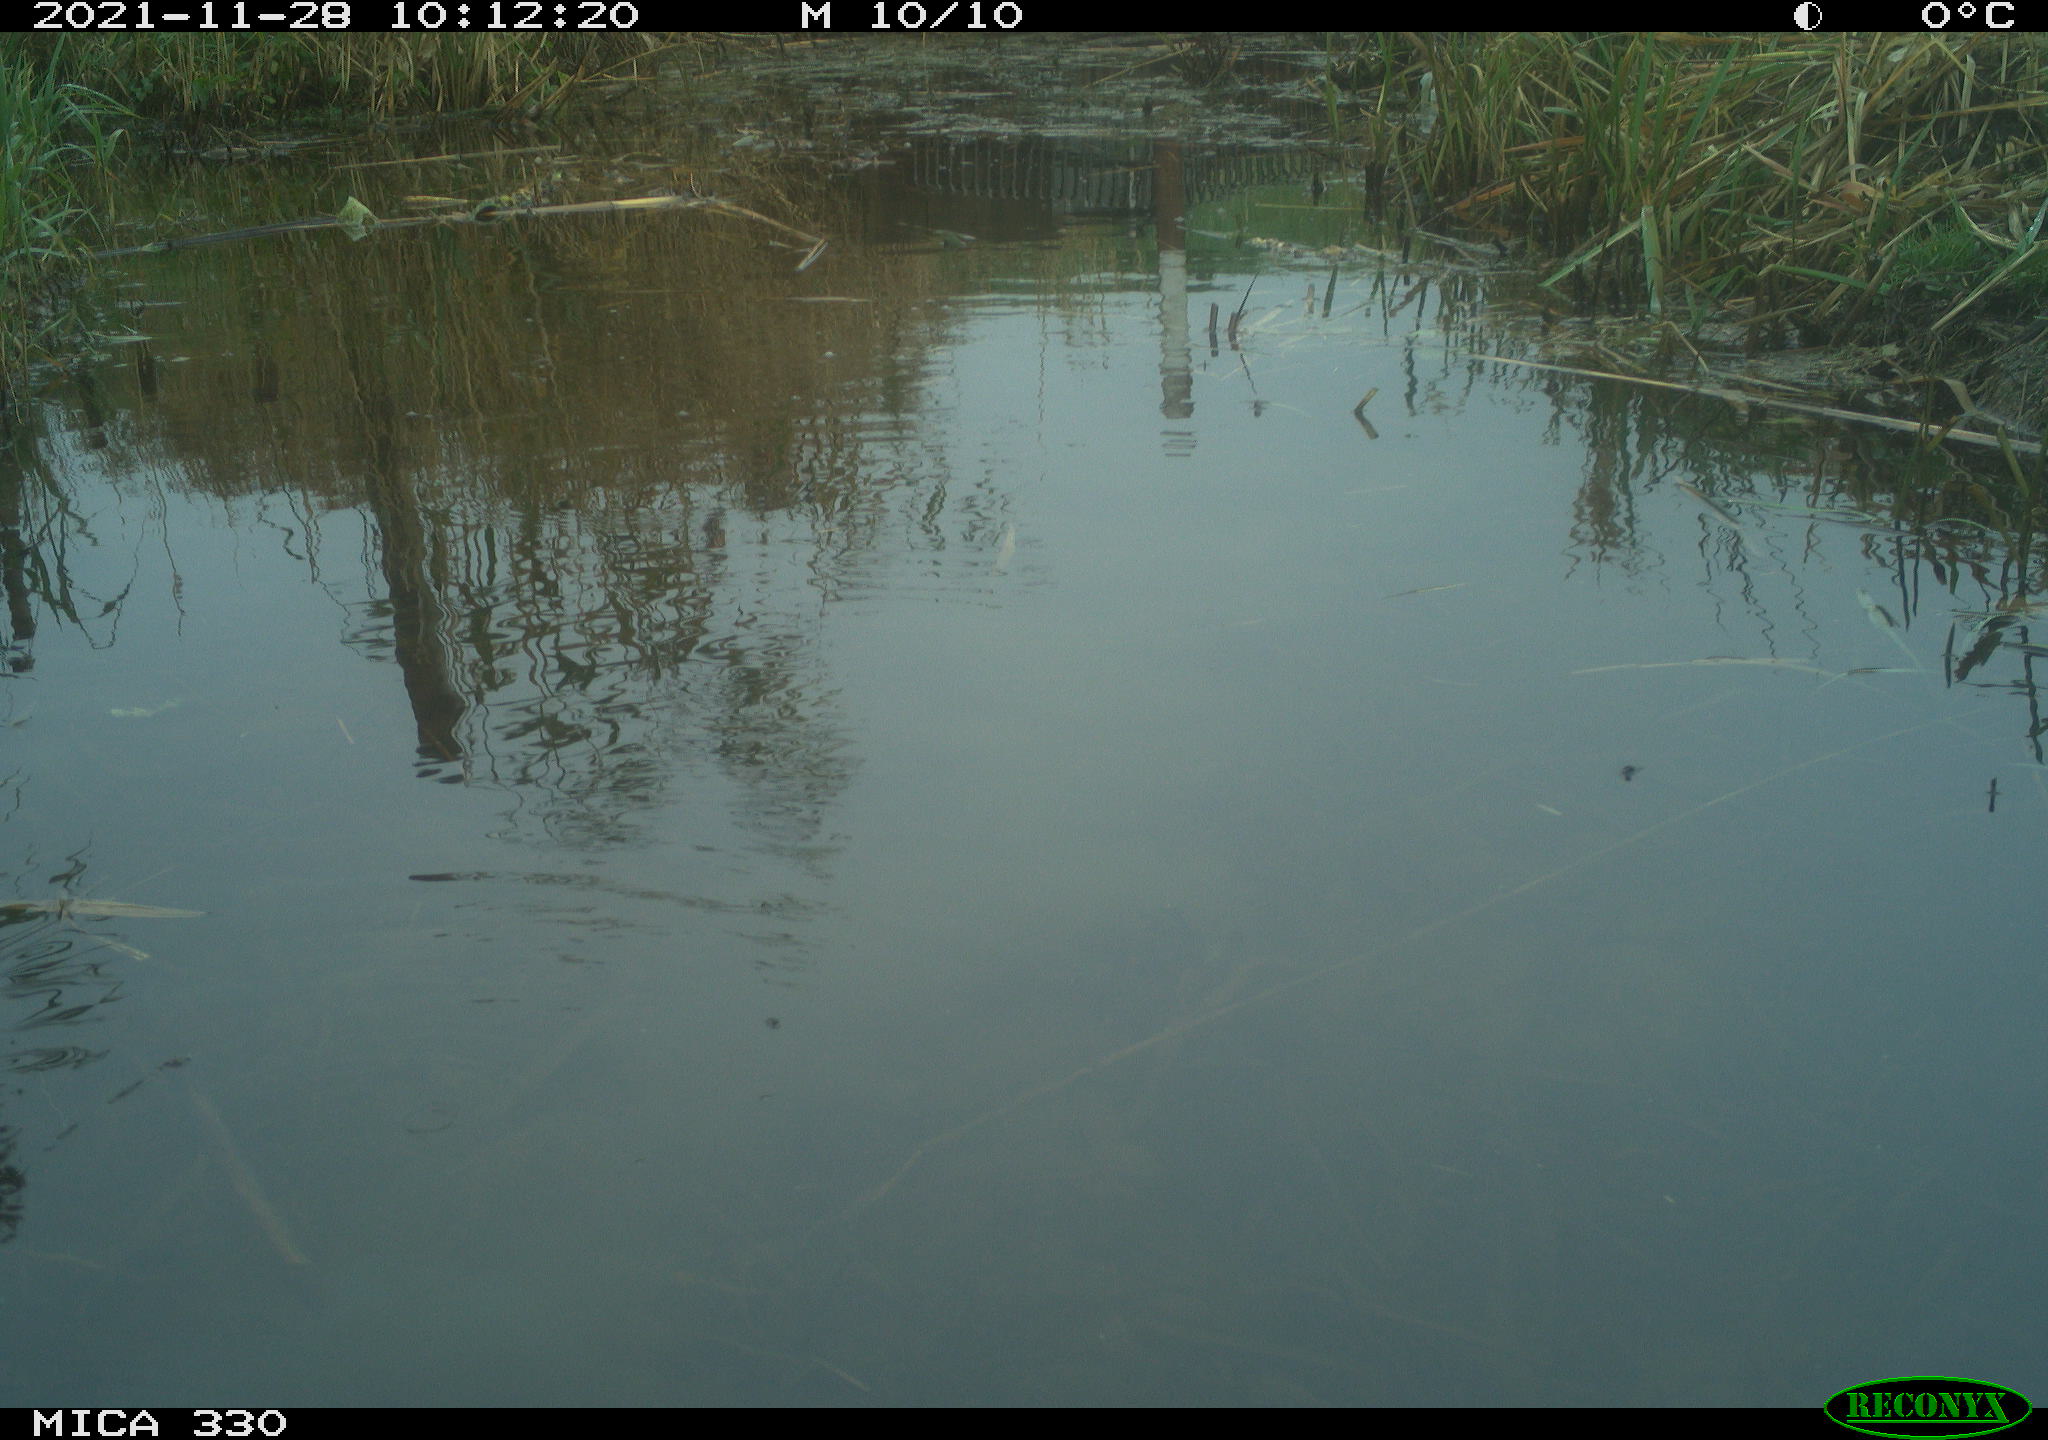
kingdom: Animalia
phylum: Chordata
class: Aves
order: Pelecaniformes
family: Ardeidae
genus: Ardea
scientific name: Ardea alba
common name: Great egret
